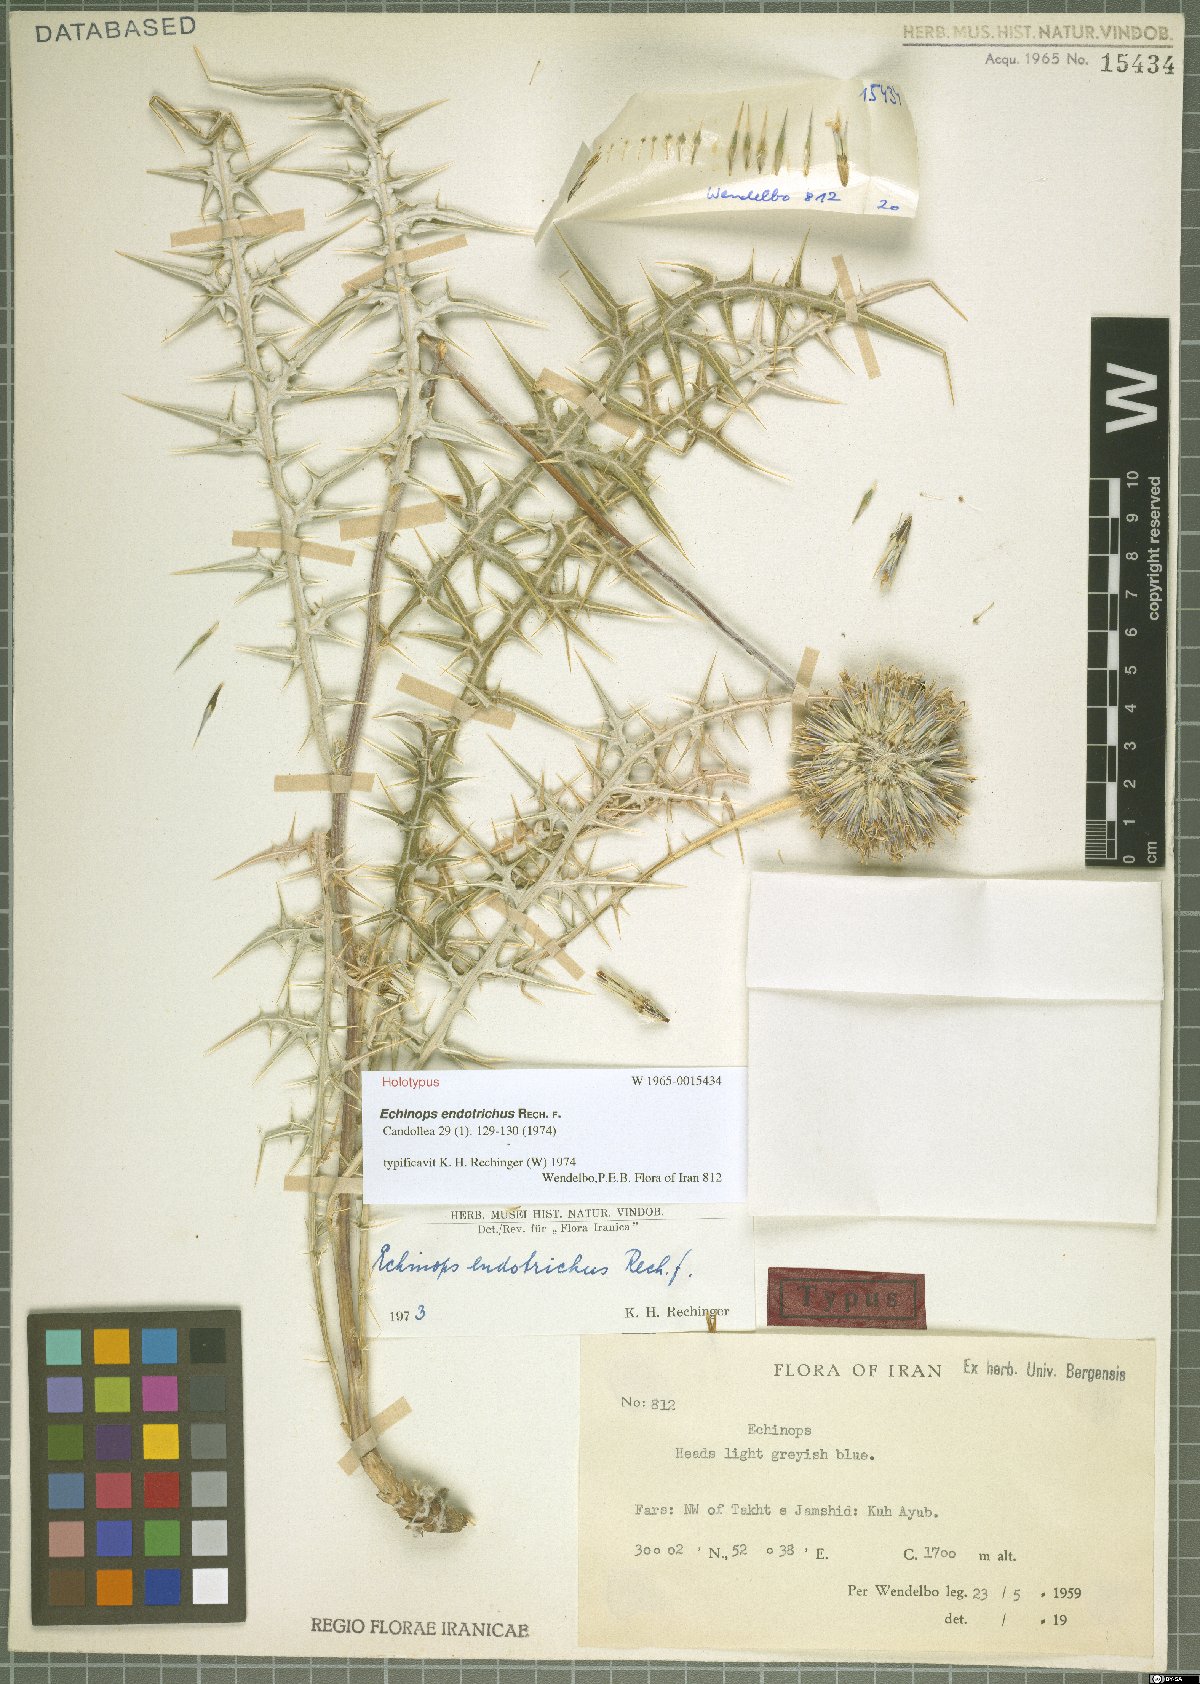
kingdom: Plantae
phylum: Tracheophyta
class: Magnoliopsida
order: Asterales
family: Asteraceae
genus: Echinops
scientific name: Echinops endotrichus
